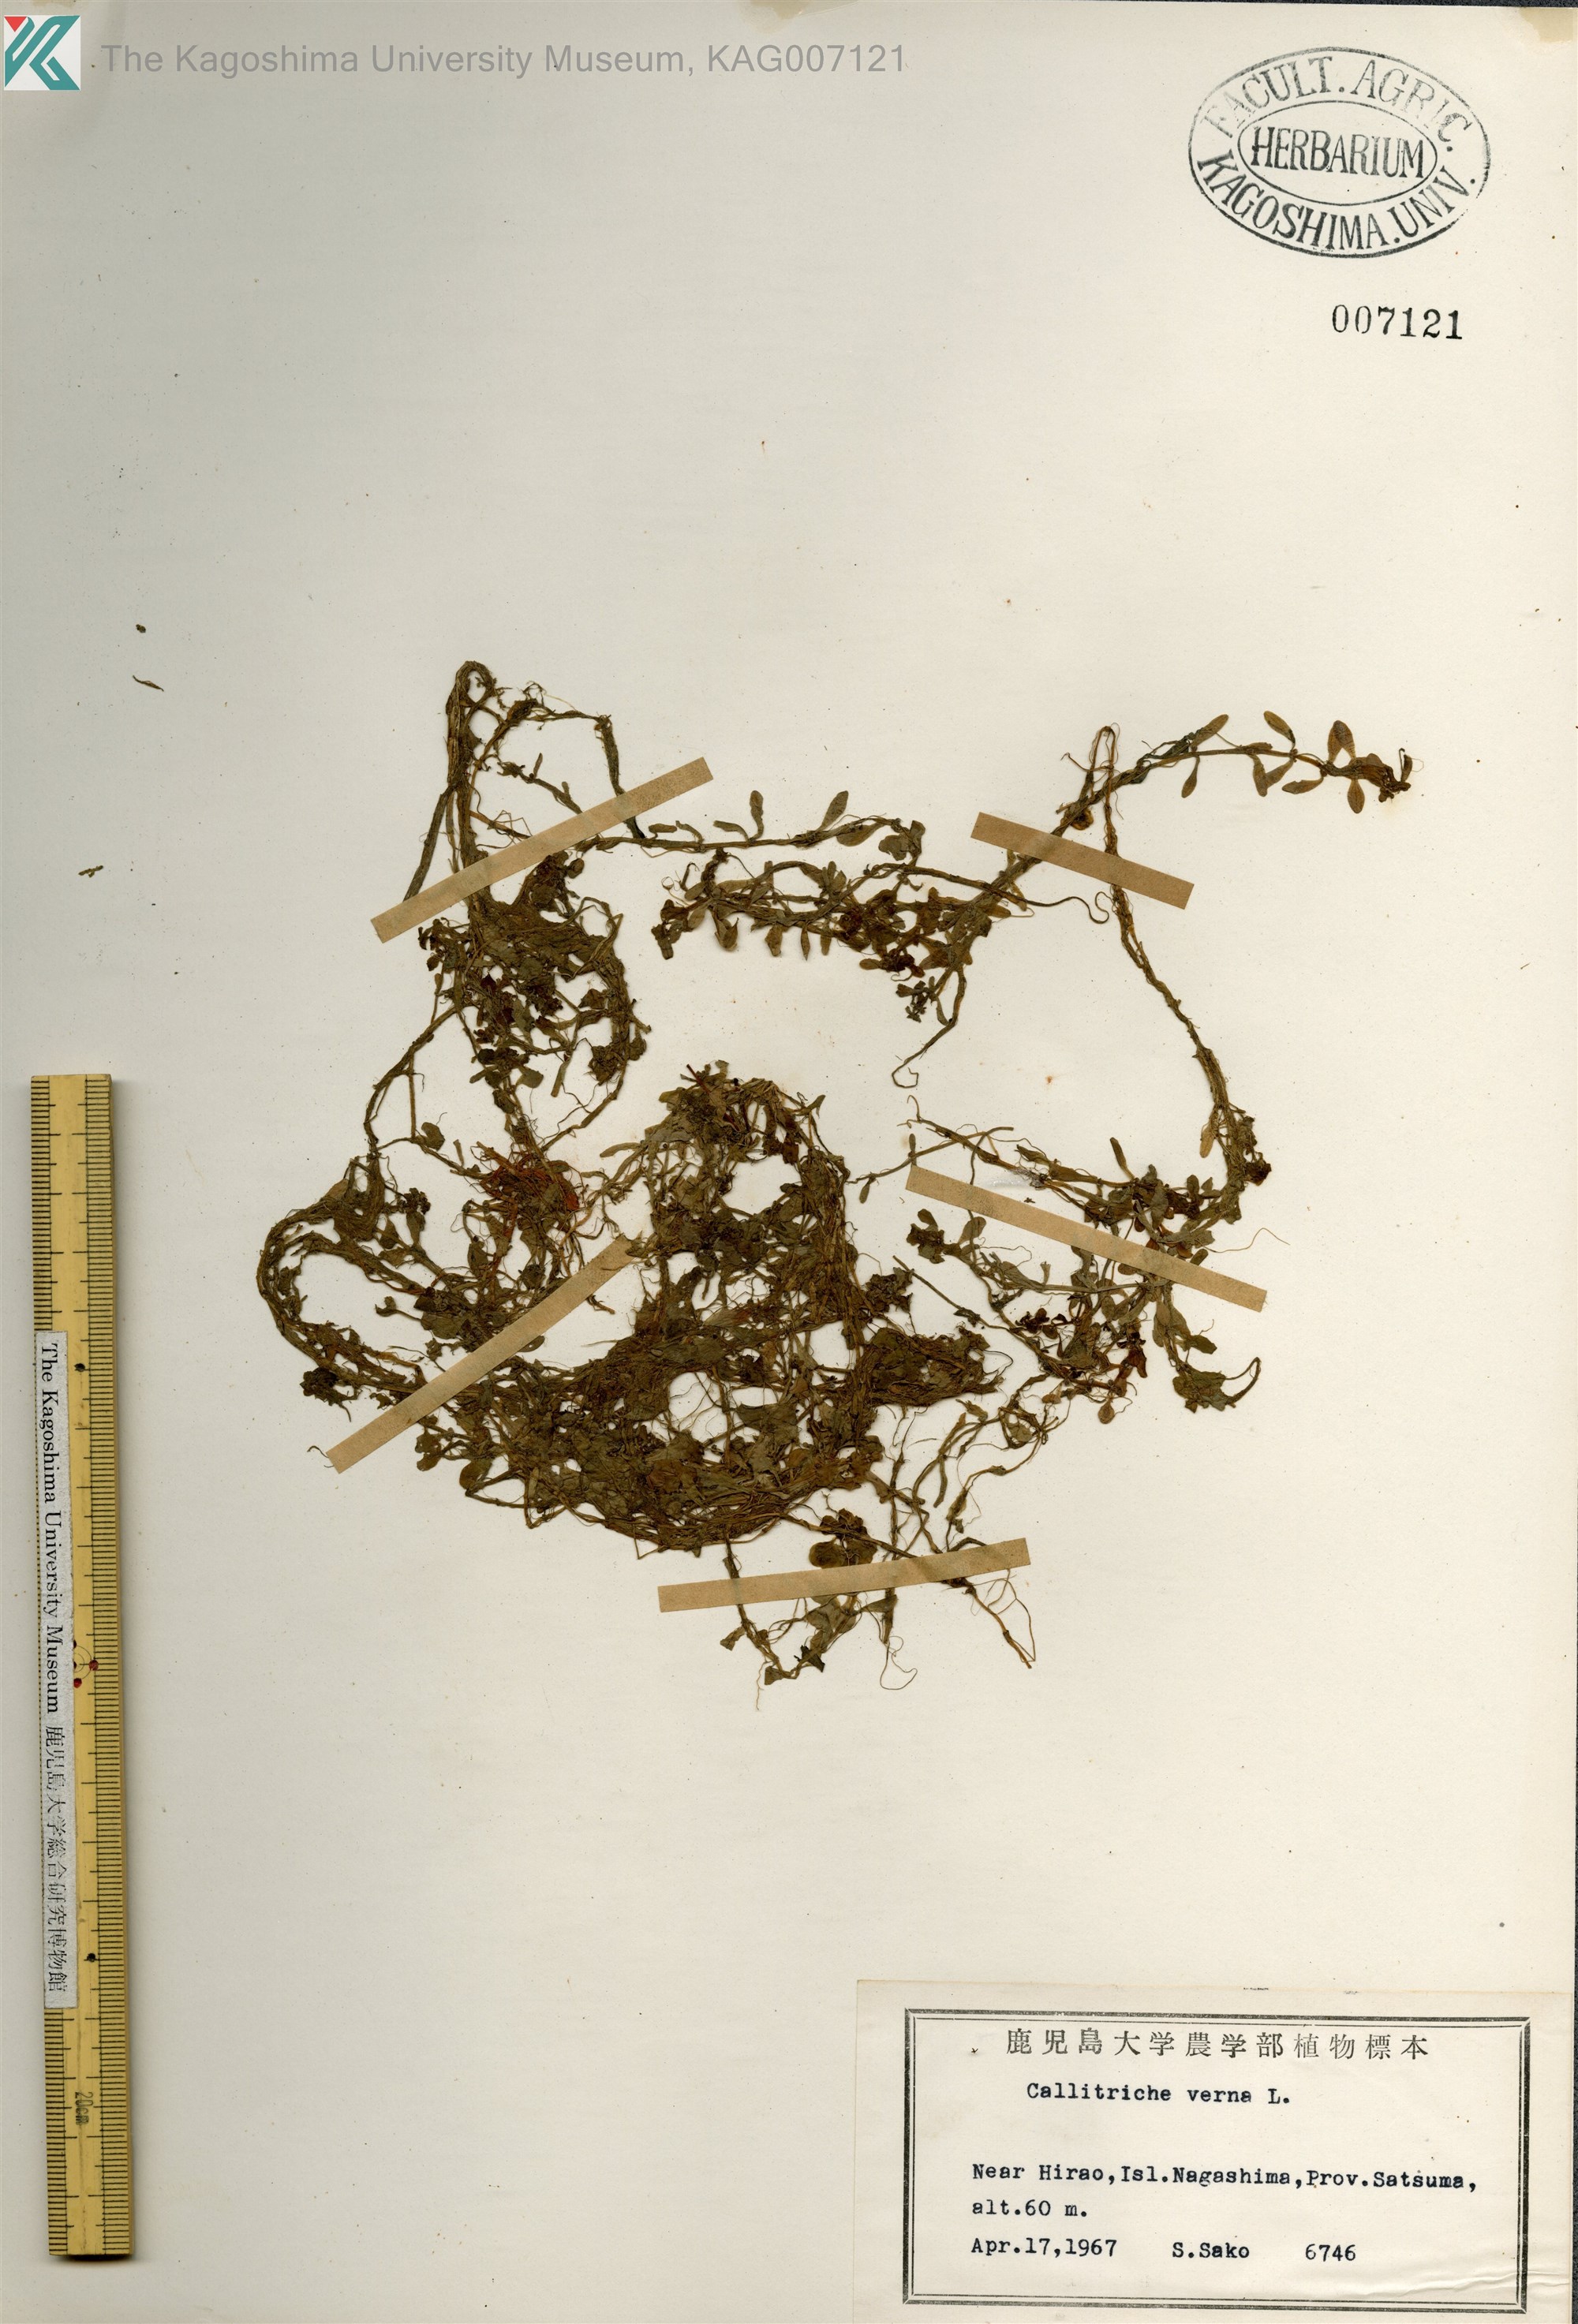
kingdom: Plantae
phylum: Tracheophyta
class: Magnoliopsida
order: Lamiales
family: Plantaginaceae
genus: Callitriche
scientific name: Callitriche palustris
